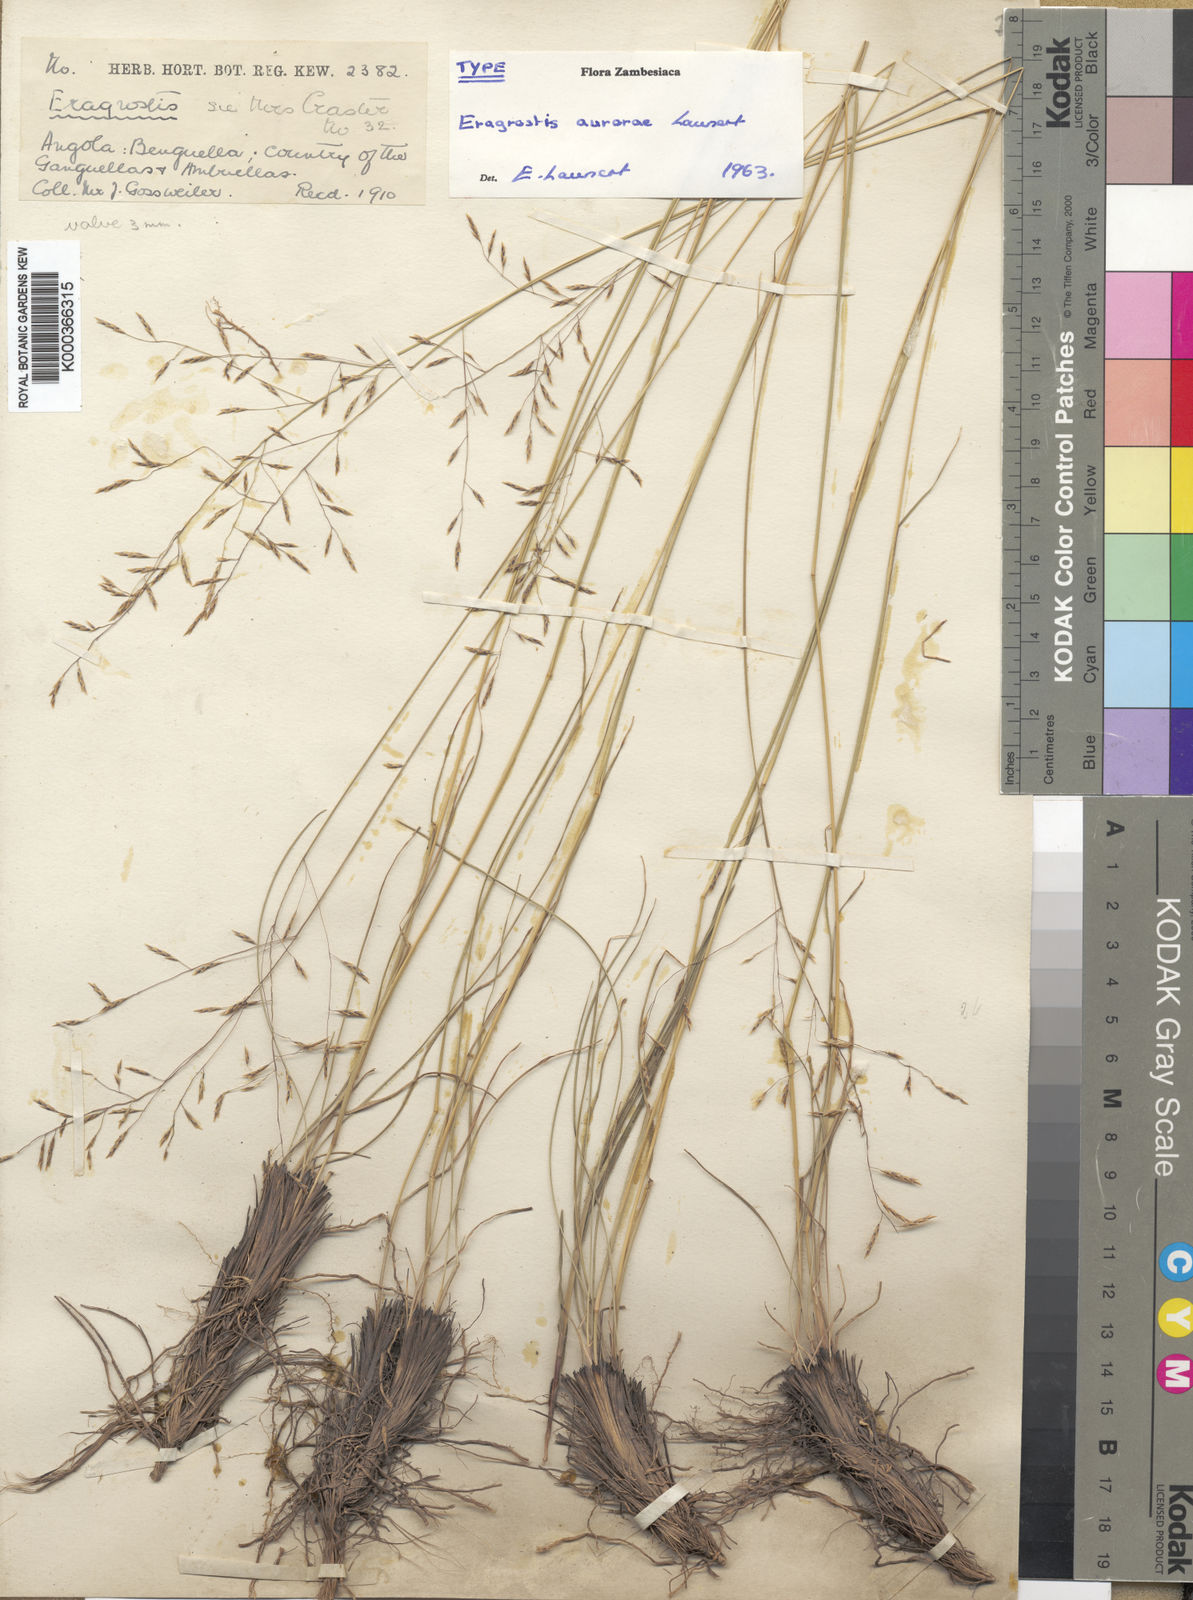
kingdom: Plantae
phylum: Tracheophyta
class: Liliopsida
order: Poales
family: Poaceae
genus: Eragrostis
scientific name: Eragrostis aurorae
